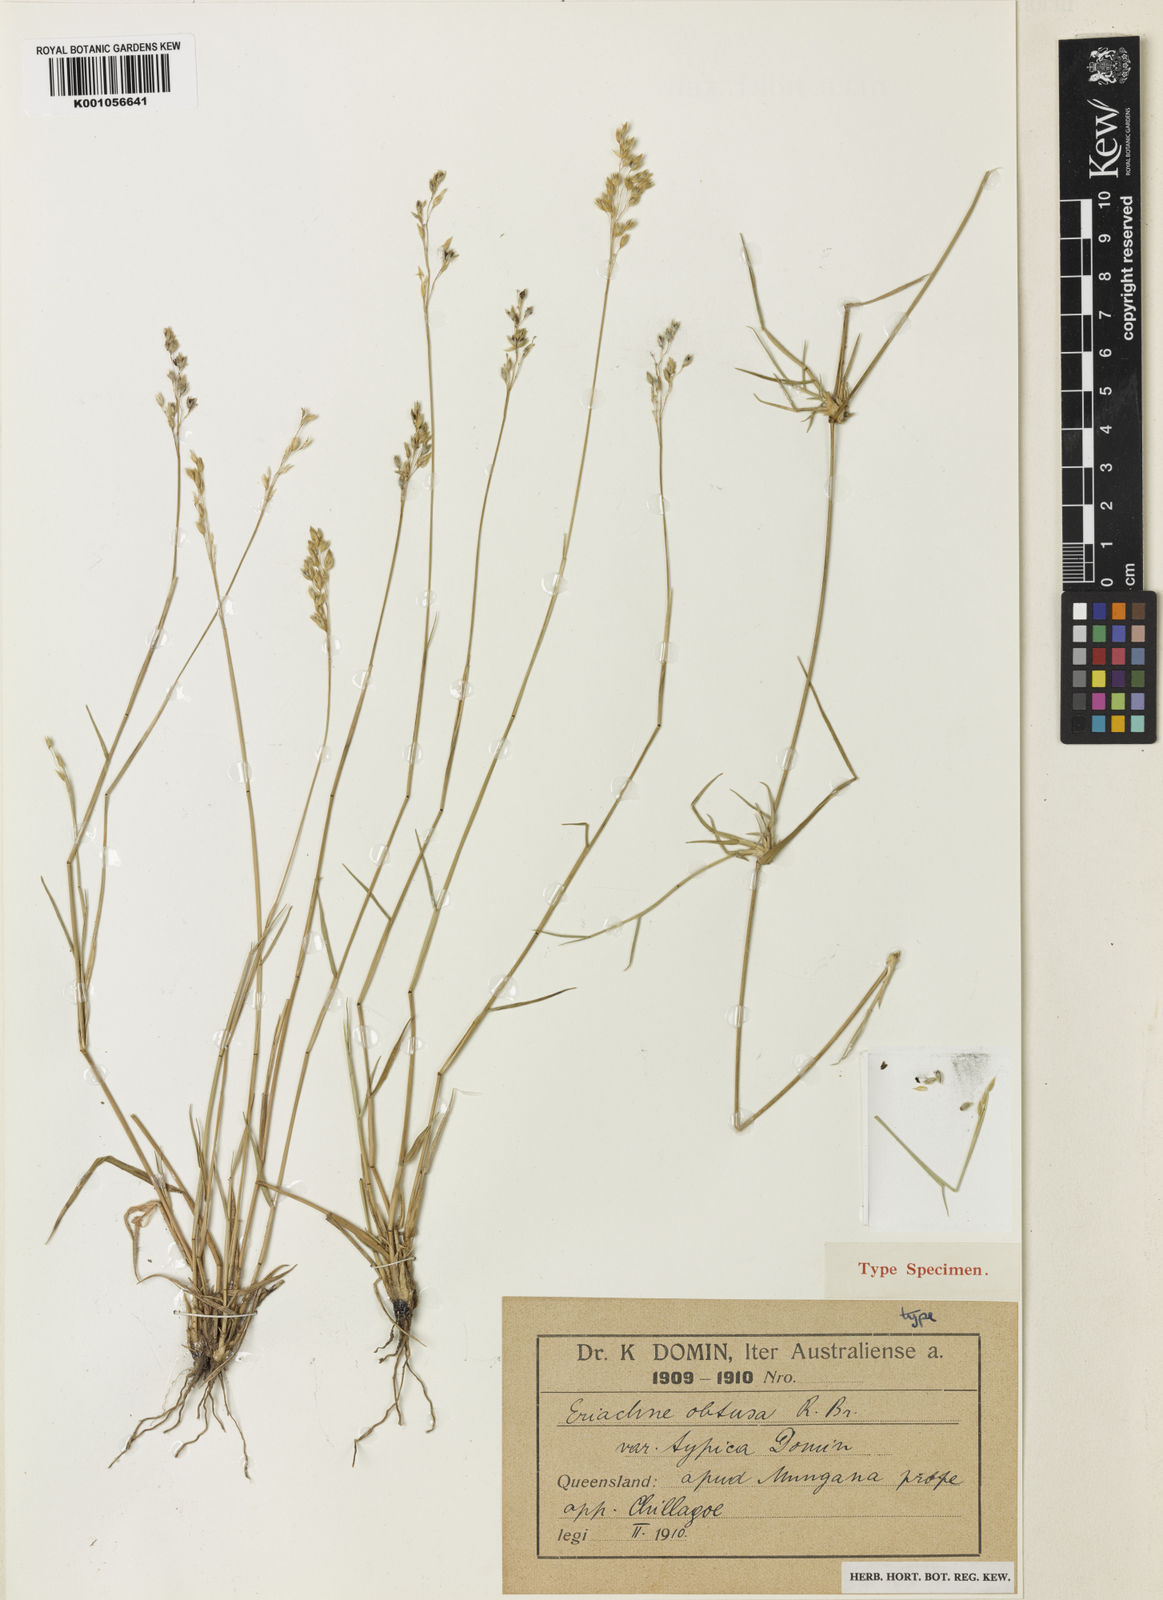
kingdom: Plantae
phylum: Tracheophyta
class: Liliopsida
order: Poales
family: Poaceae
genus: Eriachne
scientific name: Eriachne obtusa
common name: Northern wanderrie grass
